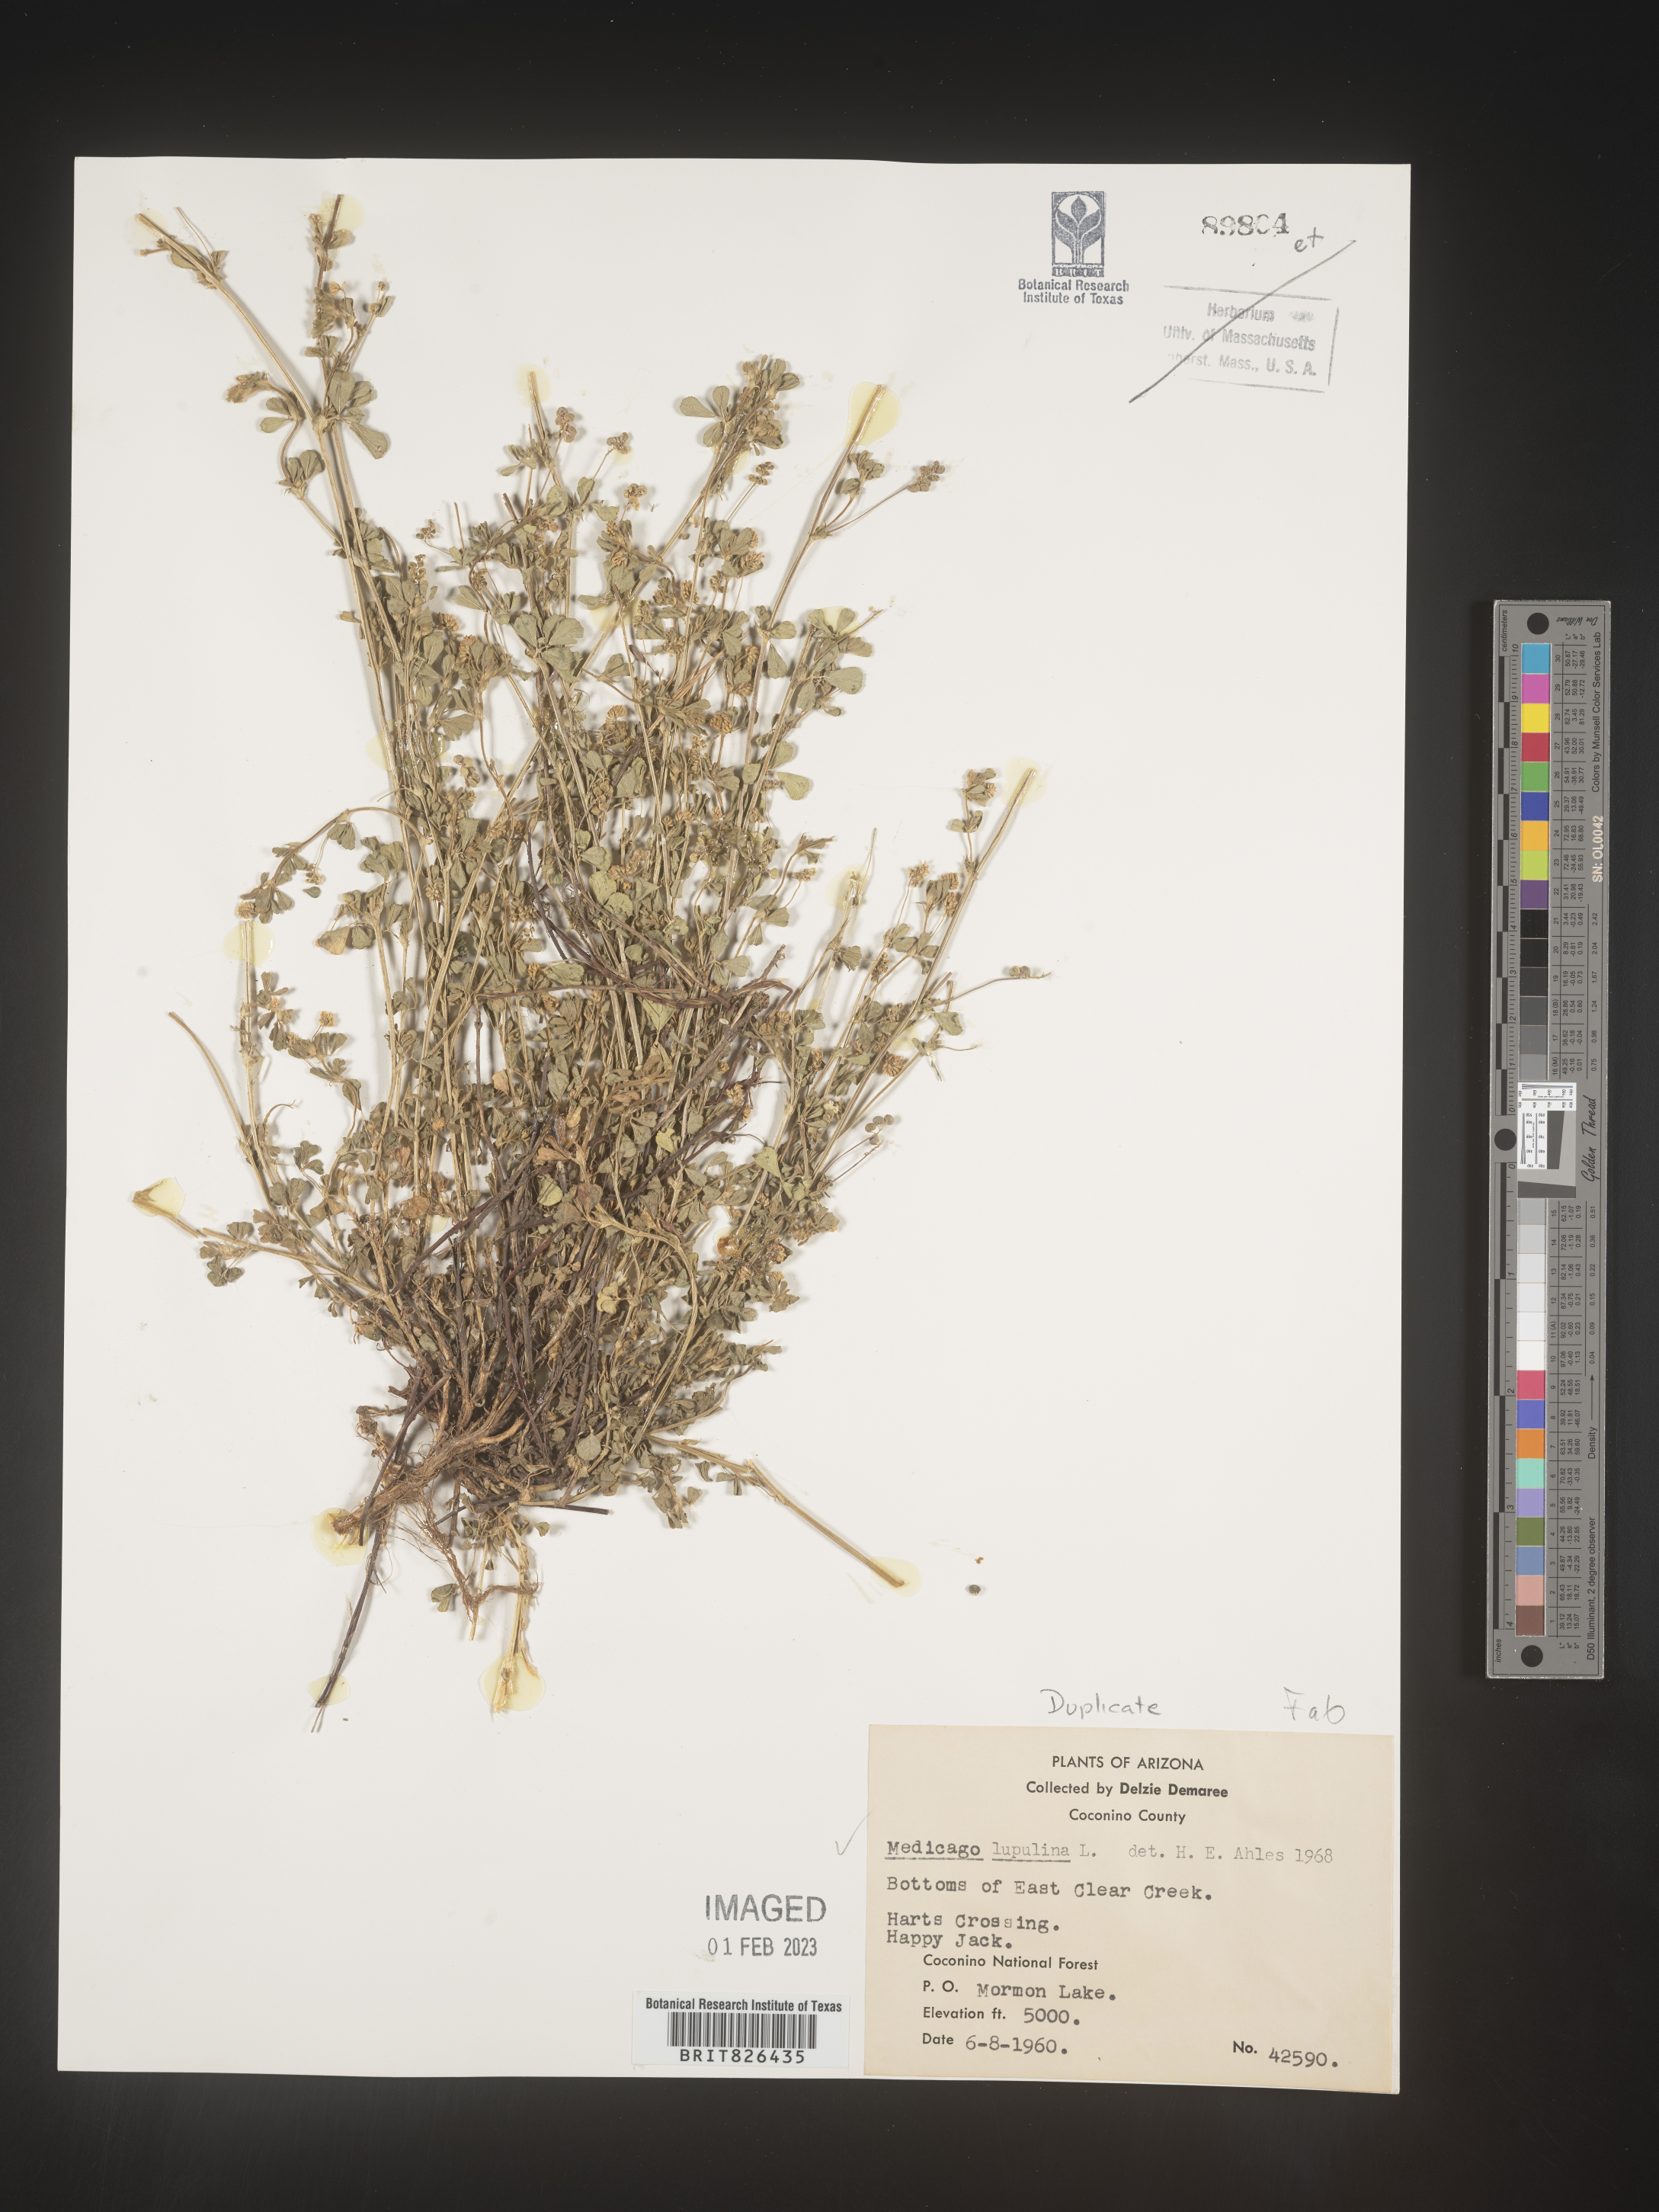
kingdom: Plantae
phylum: Tracheophyta
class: Magnoliopsida
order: Fabales
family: Fabaceae
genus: Medicago
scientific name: Medicago lupulina
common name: Black medick
